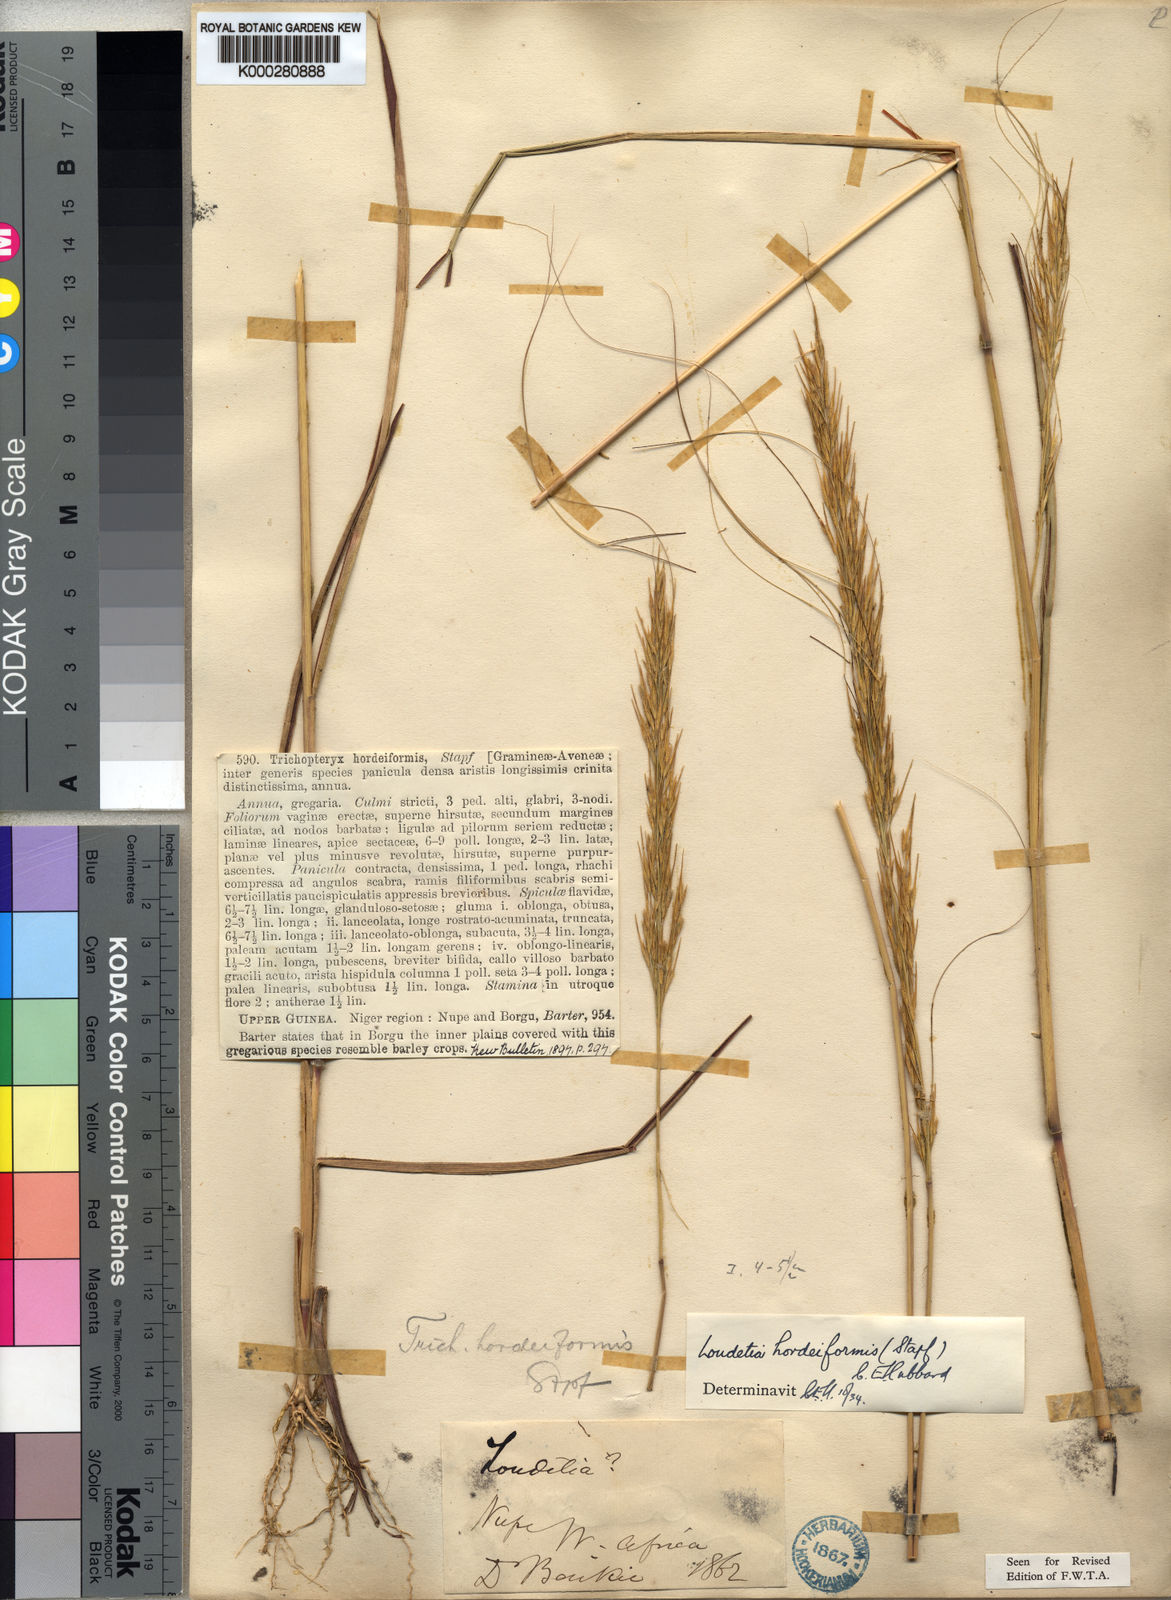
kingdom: Plantae
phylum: Tracheophyta
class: Liliopsida
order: Poales
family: Poaceae
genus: Loudetia
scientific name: Loudetia hordeiformis
